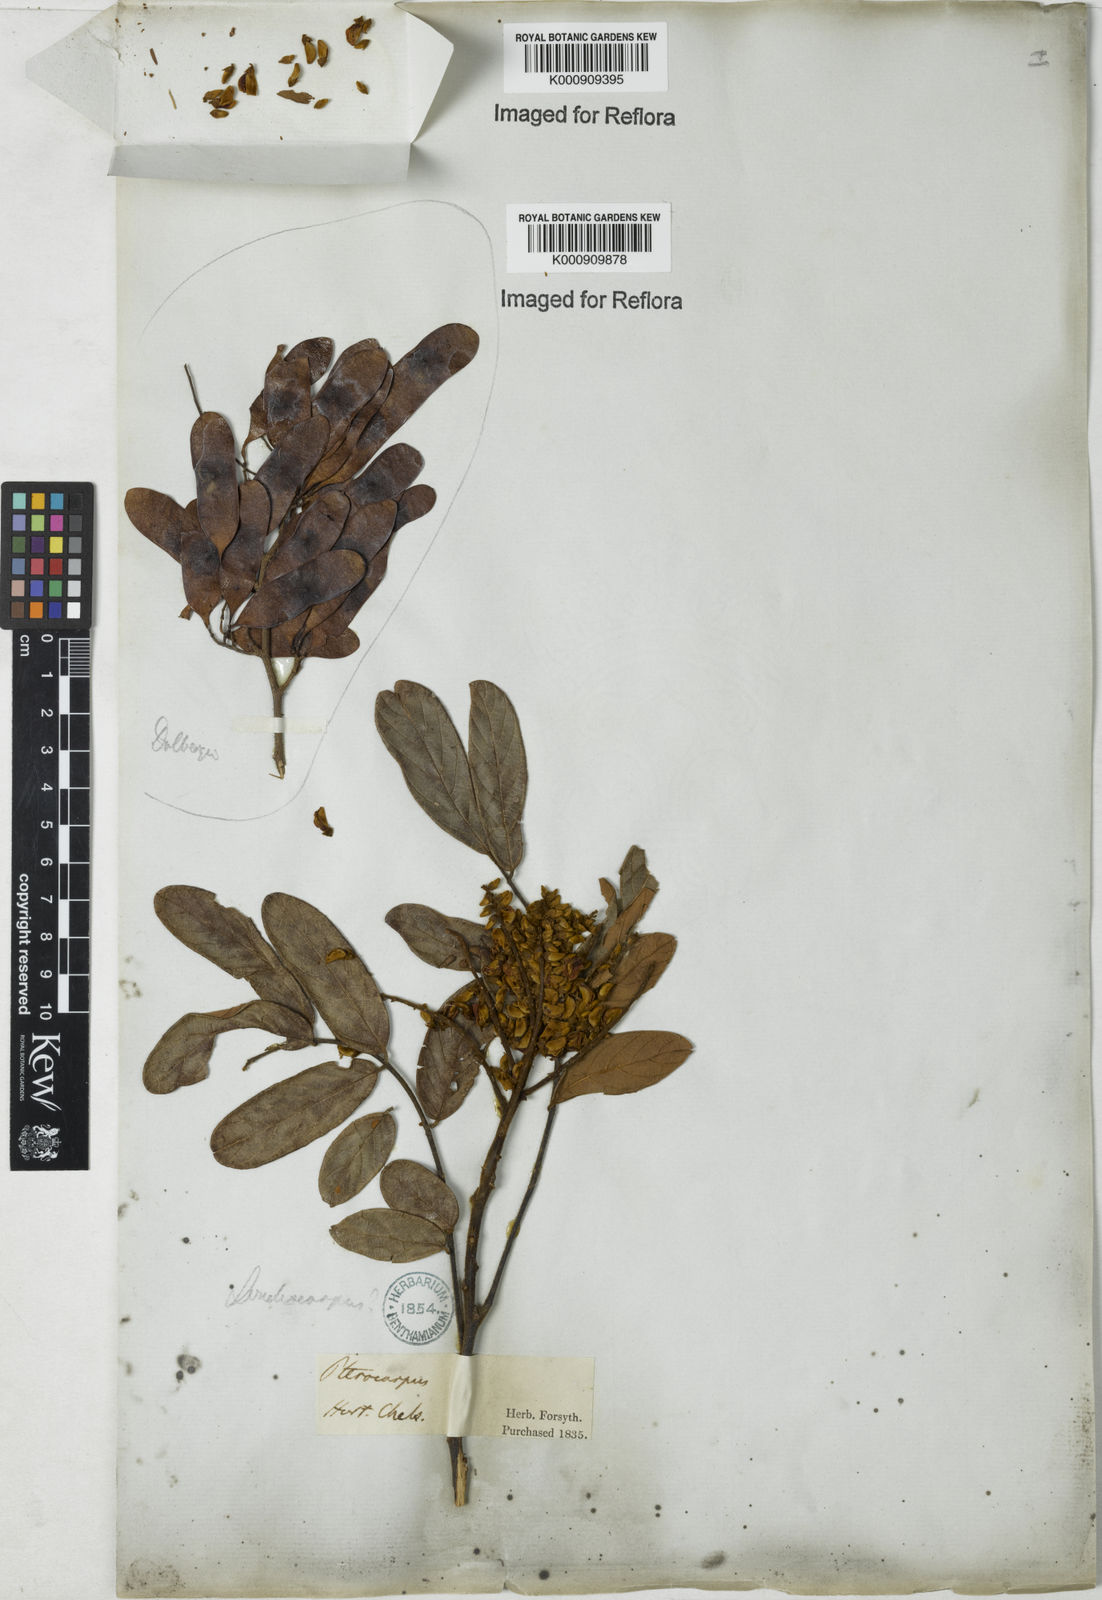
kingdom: Plantae
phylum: Tracheophyta
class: Magnoliopsida
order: Fabales
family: Fabaceae
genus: Dalbergia
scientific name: Dalbergia
